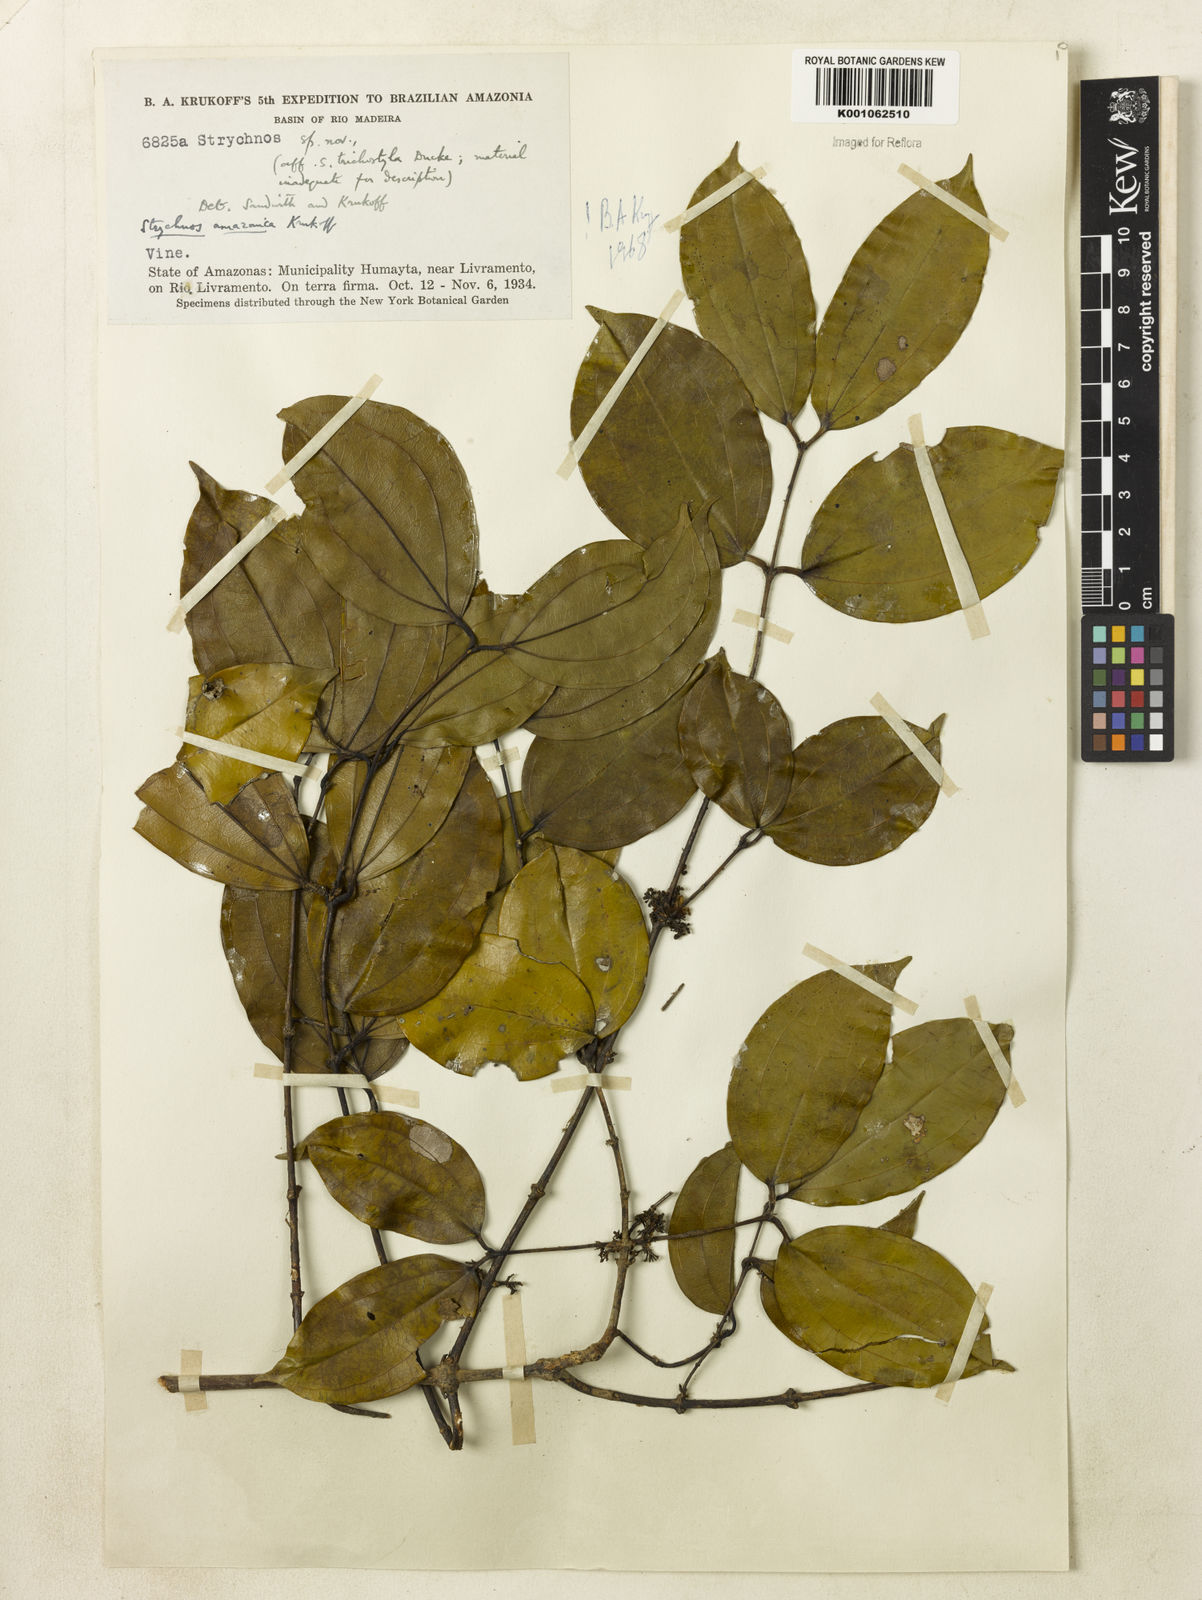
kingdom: Plantae
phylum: Tracheophyta
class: Magnoliopsida
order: Gentianales
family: Loganiaceae
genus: Strychnos
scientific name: Strychnos amazonica
